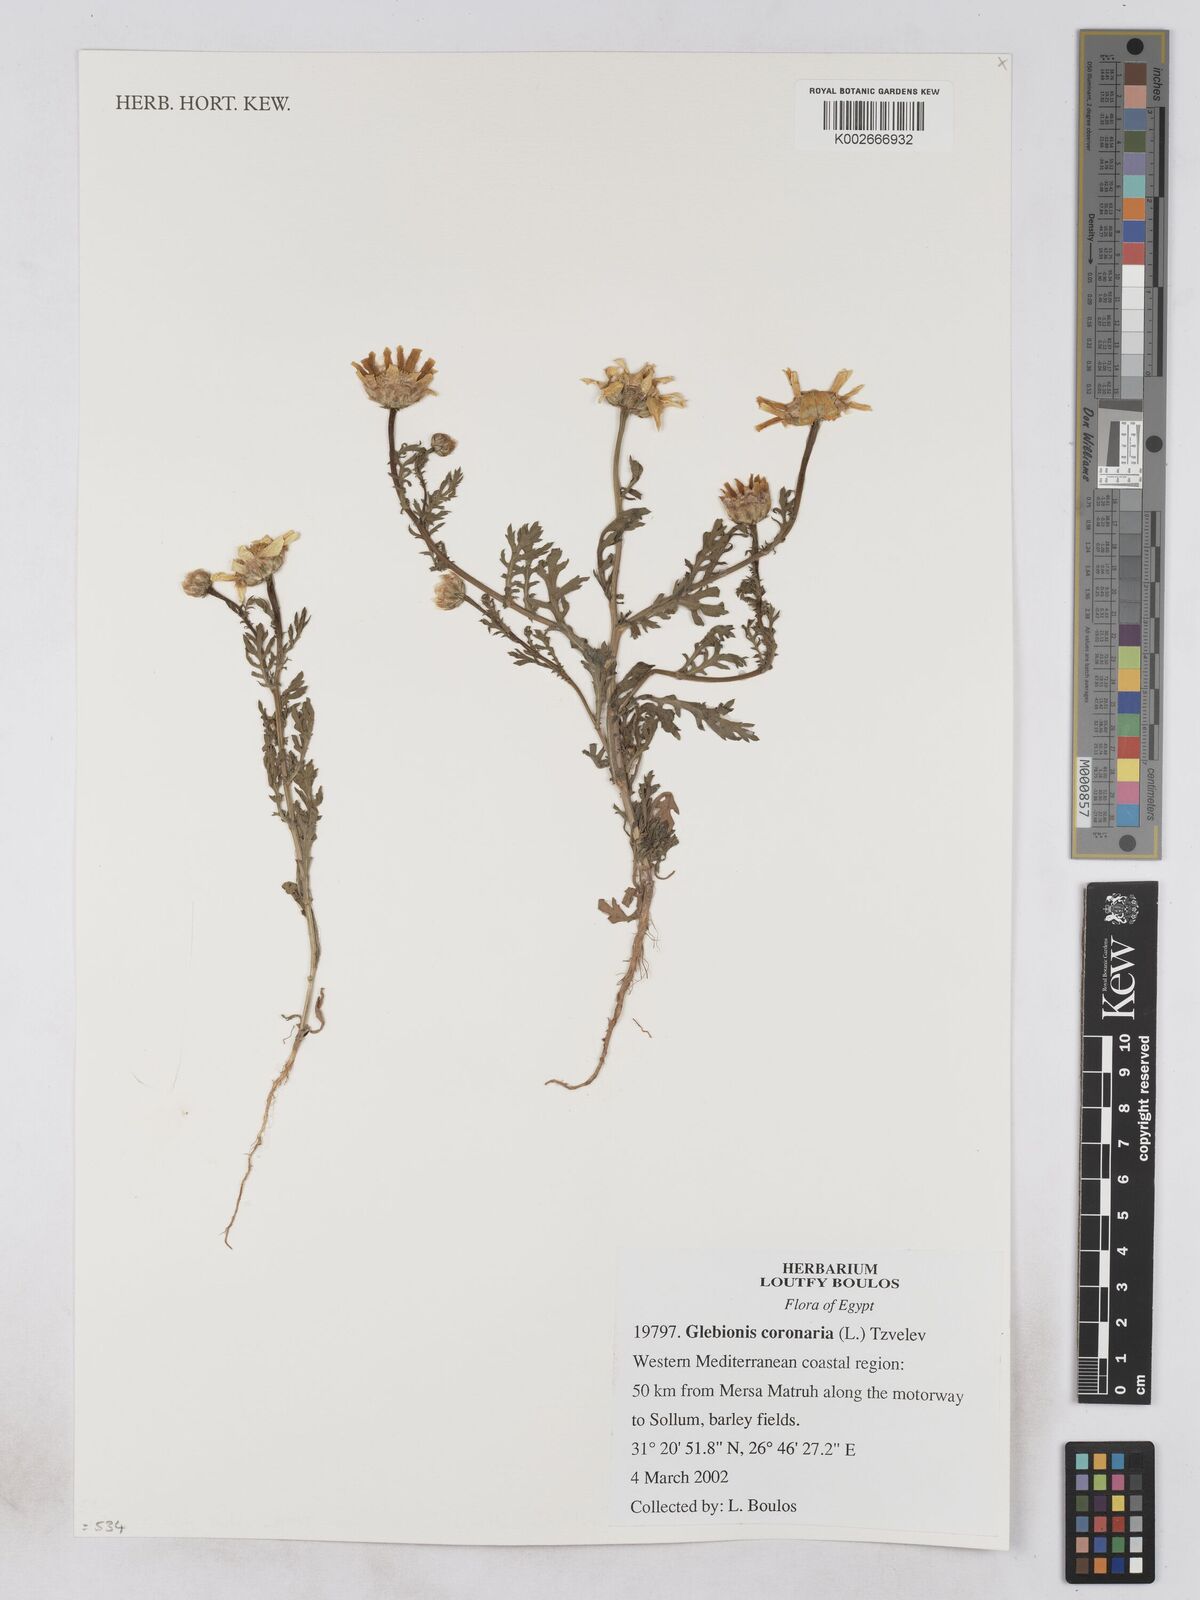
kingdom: Plantae
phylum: Tracheophyta
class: Magnoliopsida
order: Asterales
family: Asteraceae
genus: Glebionis
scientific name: Glebionis coronaria
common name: Crowndaisy
